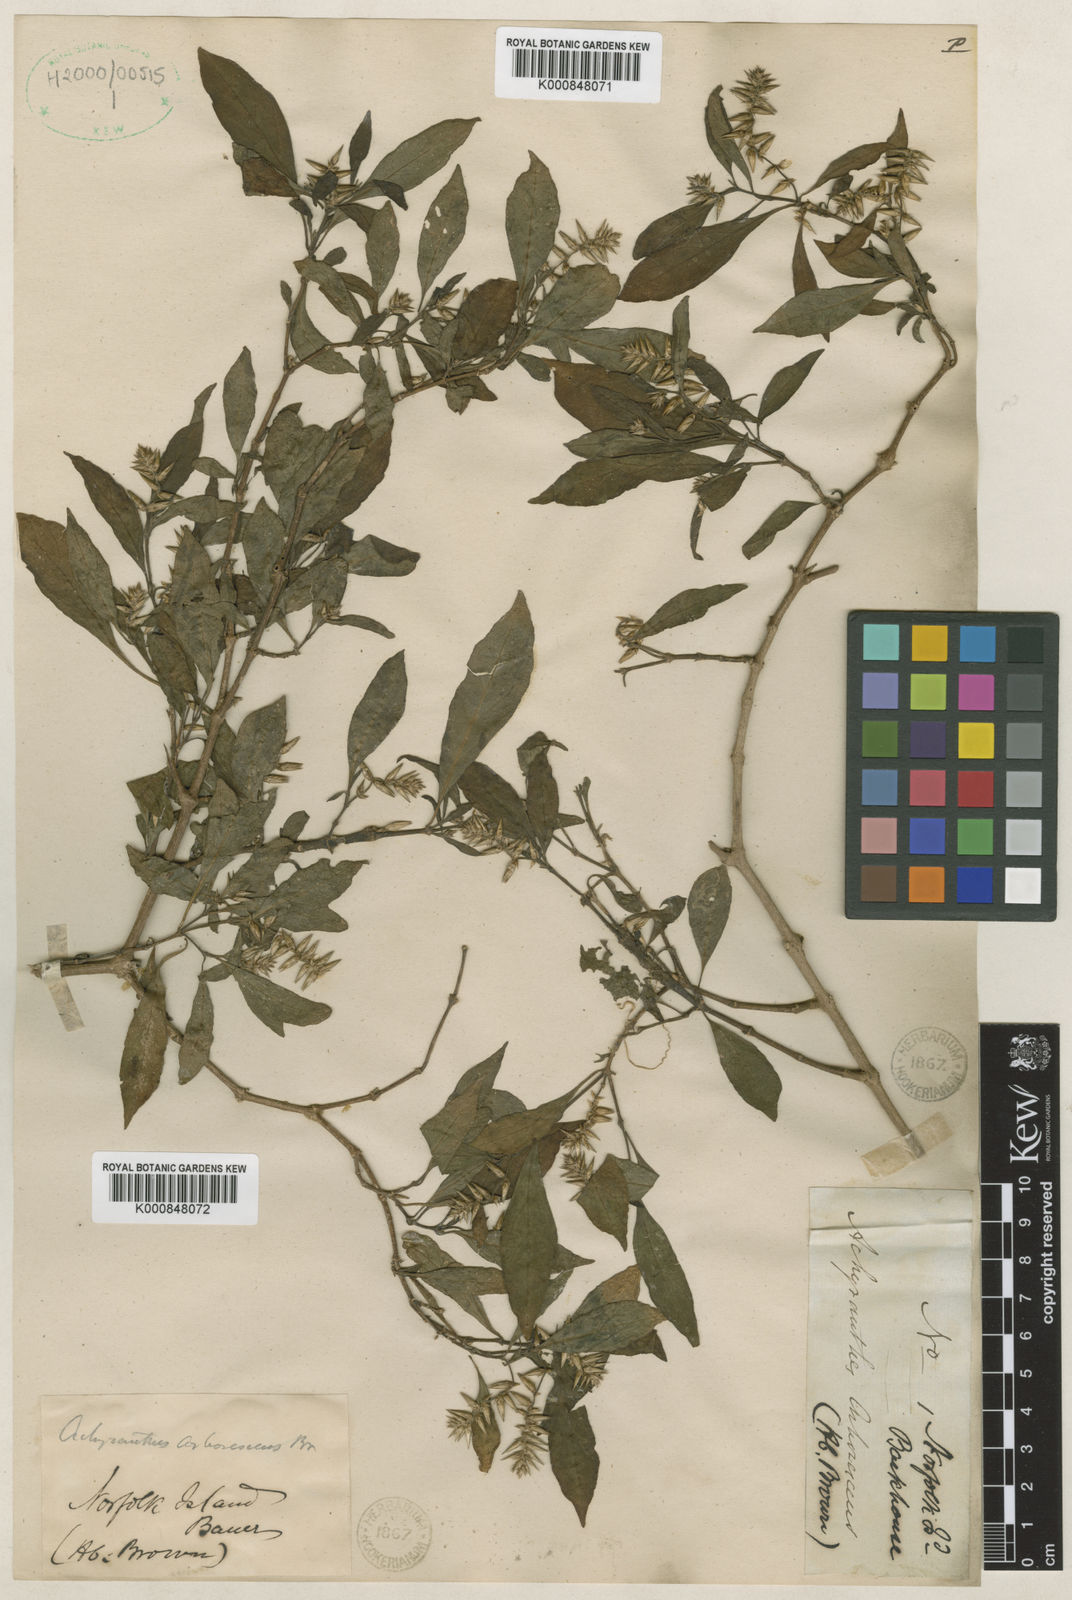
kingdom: Plantae
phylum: Tracheophyta
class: Magnoliopsida
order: Caryophyllales
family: Amaranthaceae
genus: Achyranthes
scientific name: Achyranthes arborescens
